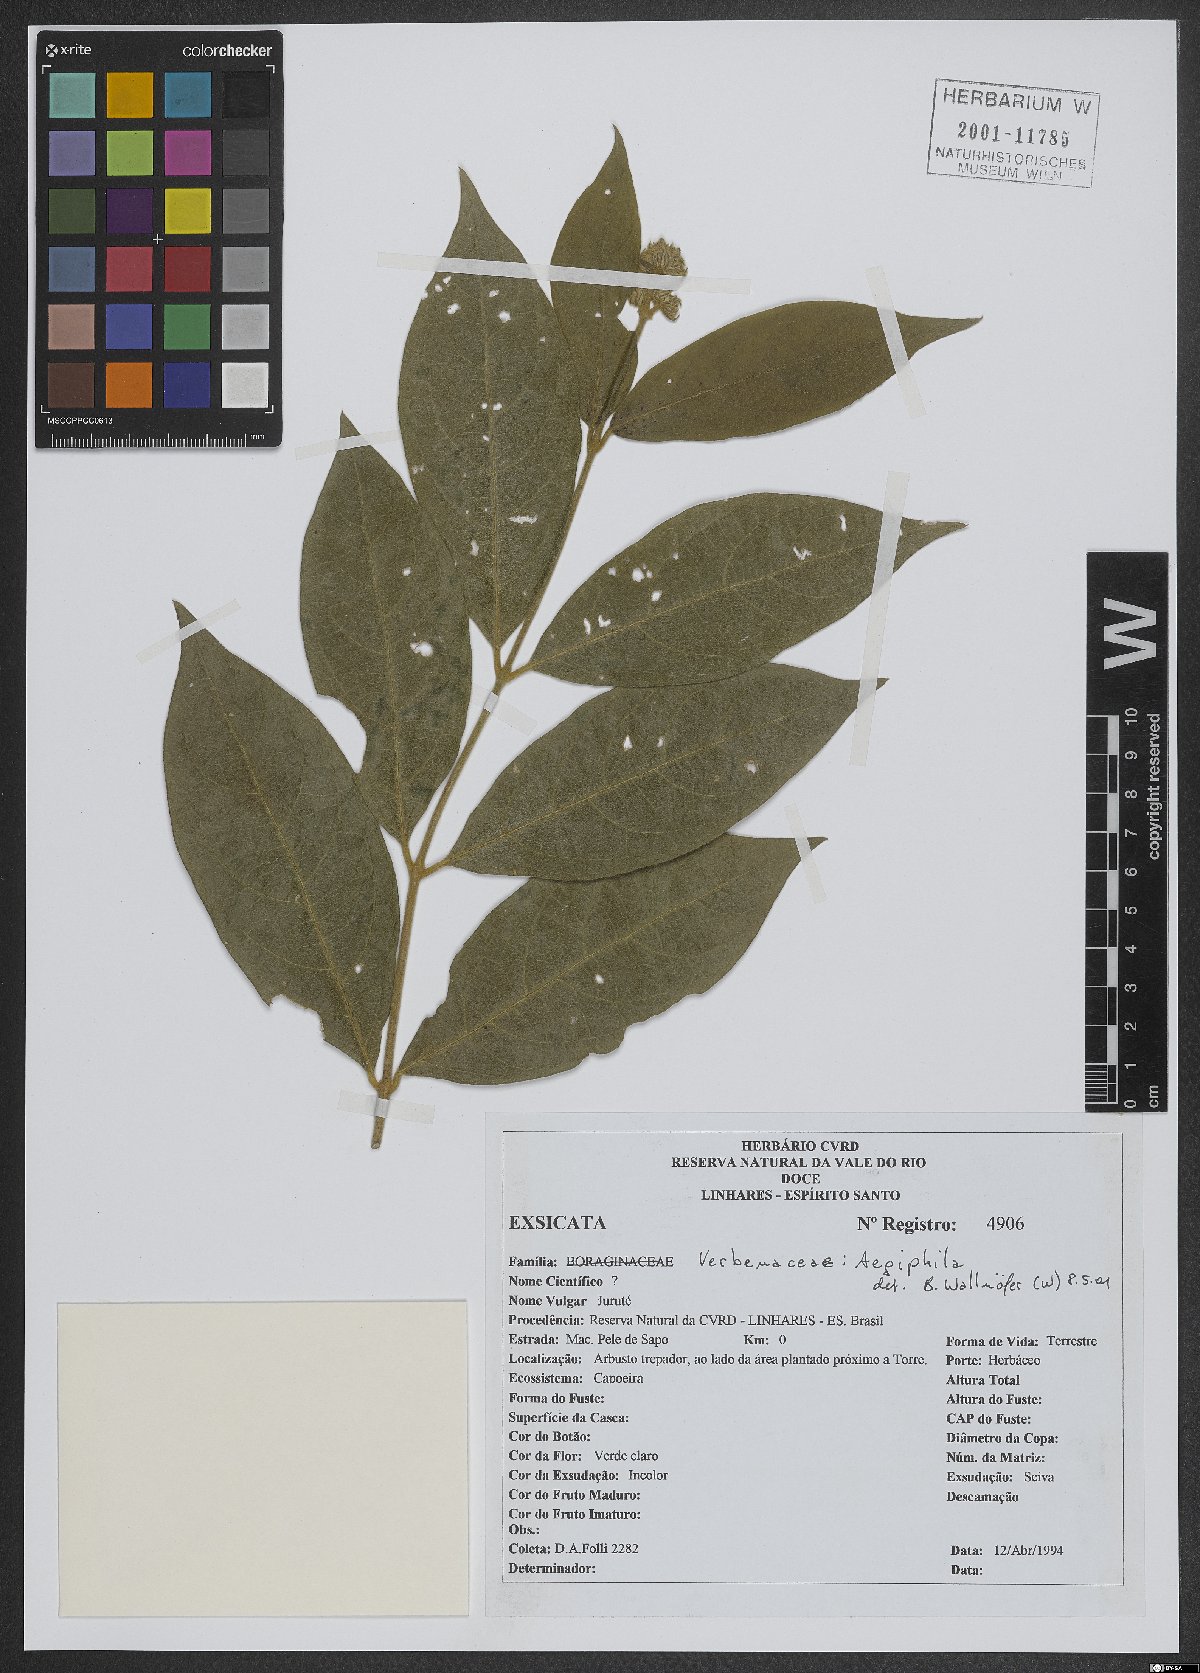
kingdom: Plantae
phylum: Tracheophyta
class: Magnoliopsida
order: Lamiales
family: Lamiaceae
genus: Aegiphila
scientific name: Aegiphila
